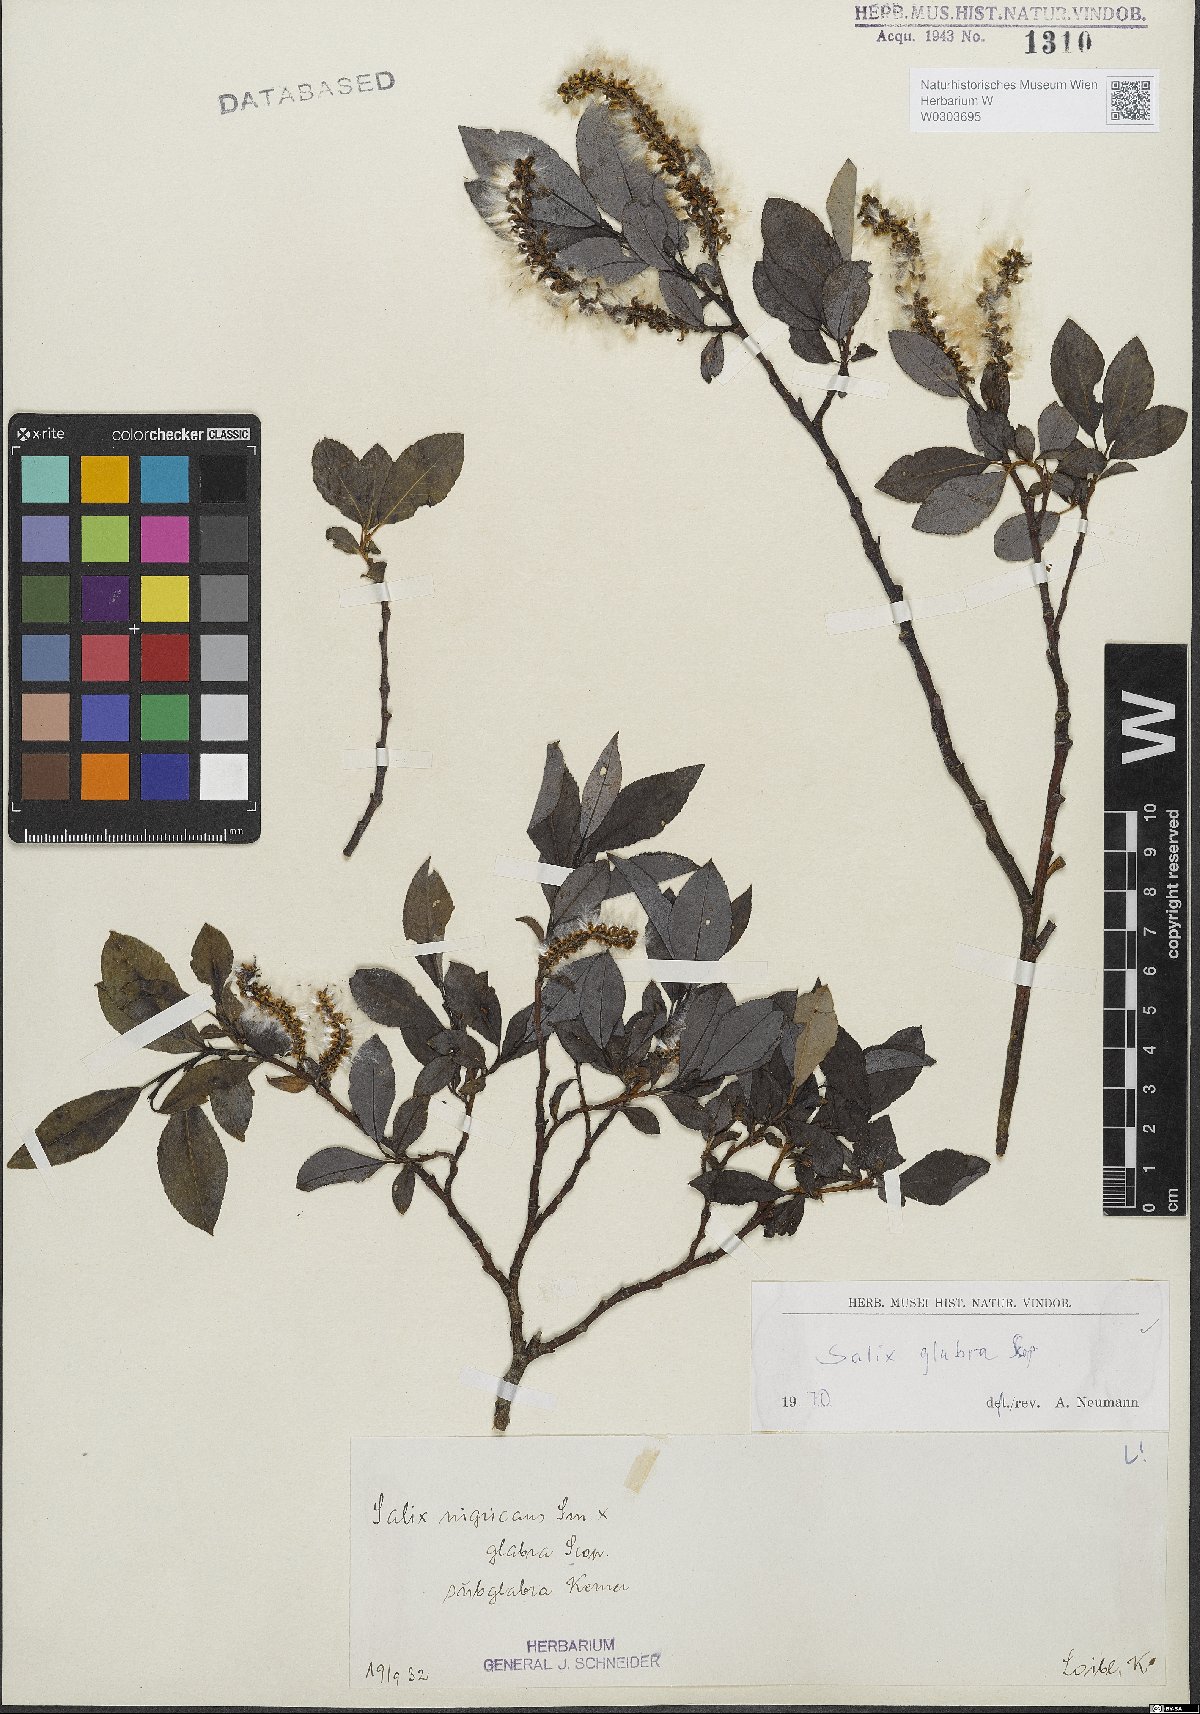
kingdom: Plantae
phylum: Tracheophyta
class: Magnoliopsida
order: Malpighiales
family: Salicaceae
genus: Salix
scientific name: Salix glabra
